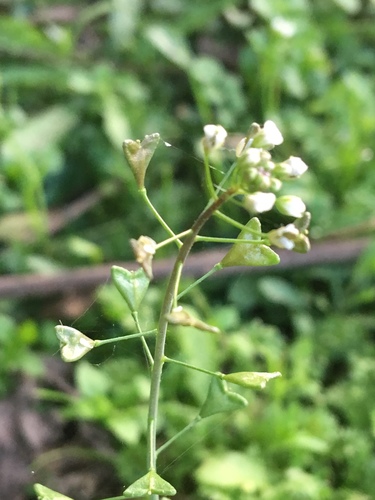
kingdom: Plantae
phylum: Tracheophyta
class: Magnoliopsida
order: Brassicales
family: Brassicaceae
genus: Capsella
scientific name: Capsella bursa-pastoris
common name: Shepherd's purse
